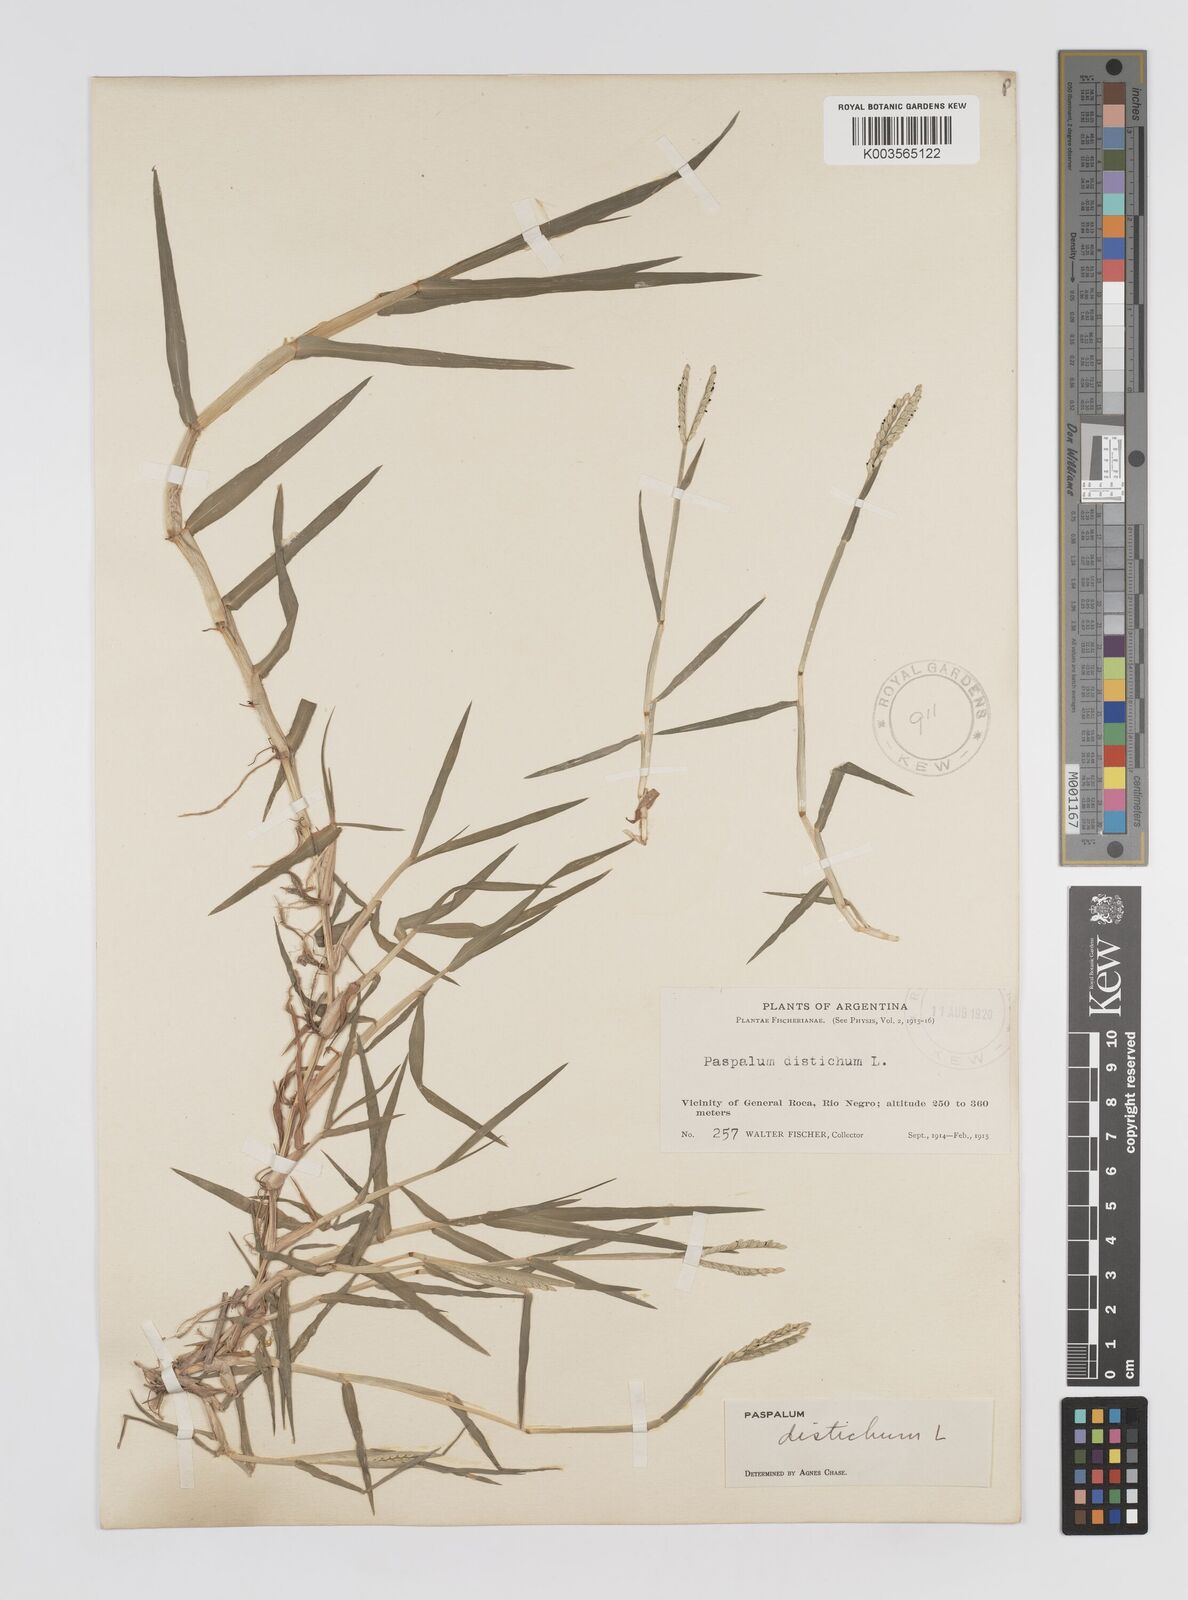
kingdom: Plantae
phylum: Tracheophyta
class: Liliopsida
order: Poales
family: Poaceae
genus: Paspalum
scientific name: Paspalum distichum
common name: Knotgrass
